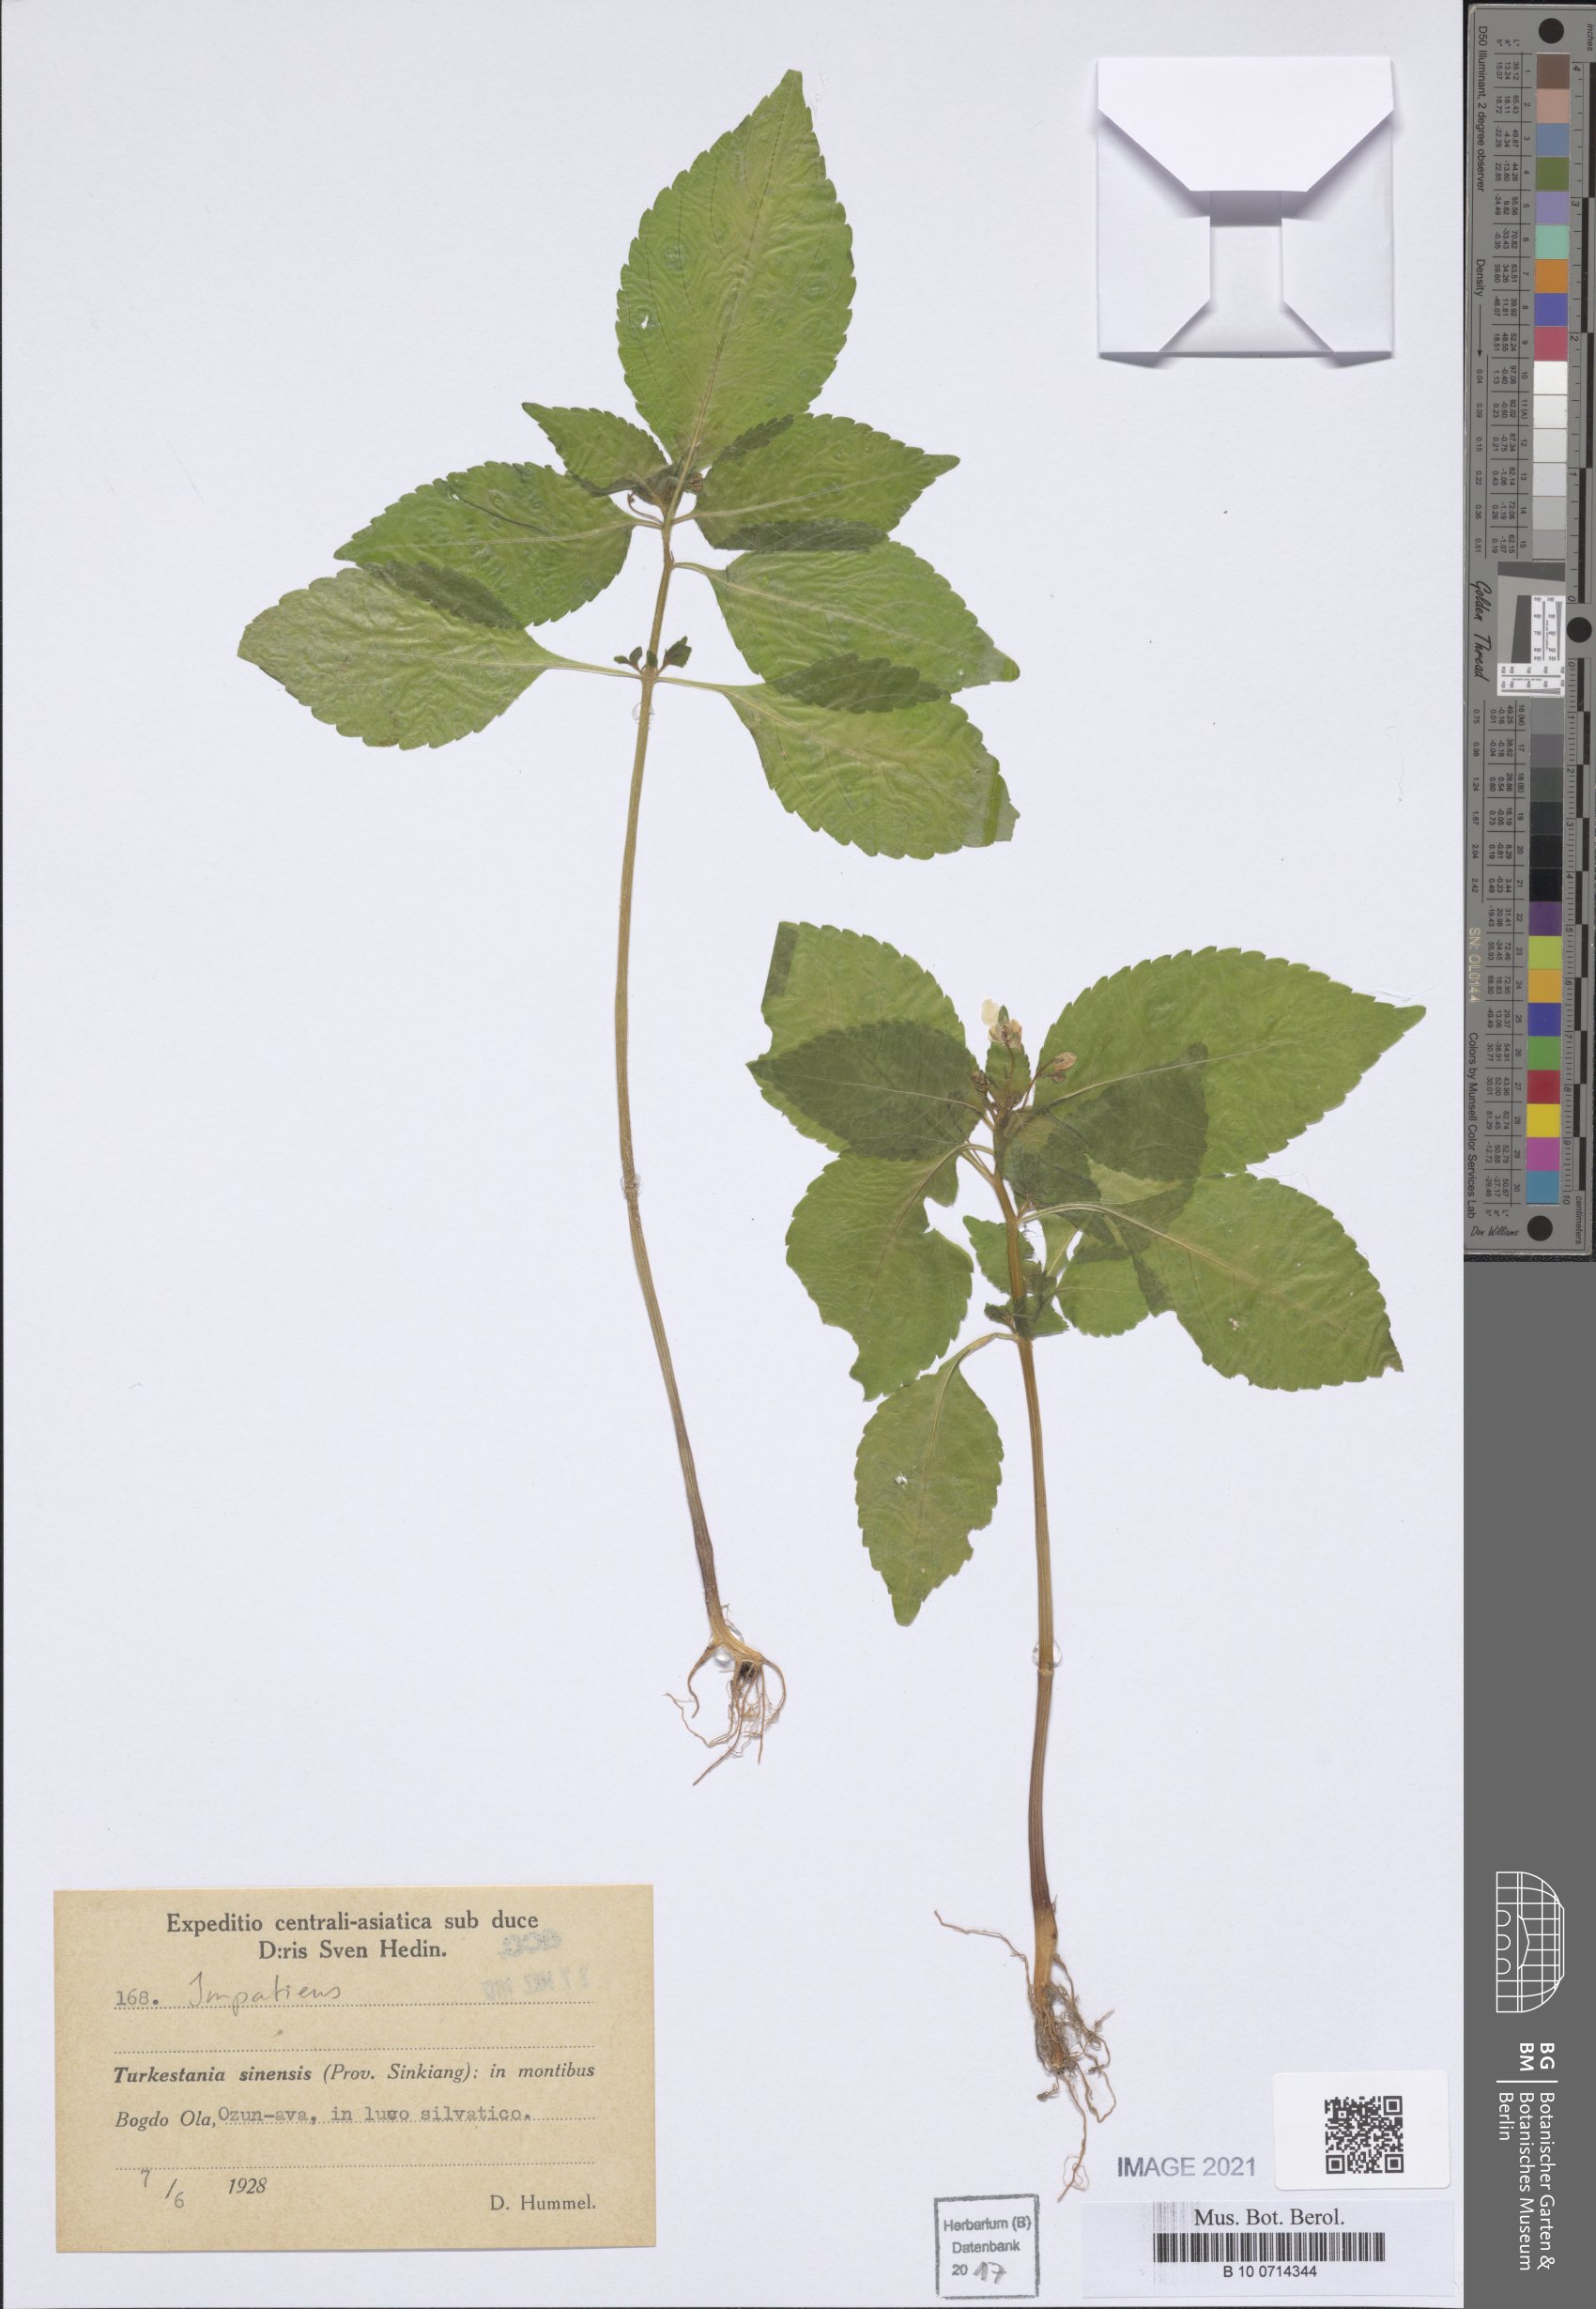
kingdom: Plantae
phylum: Tracheophyta
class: Magnoliopsida
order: Ericales
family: Balsaminaceae
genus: Impatiens
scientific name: Impatiens
